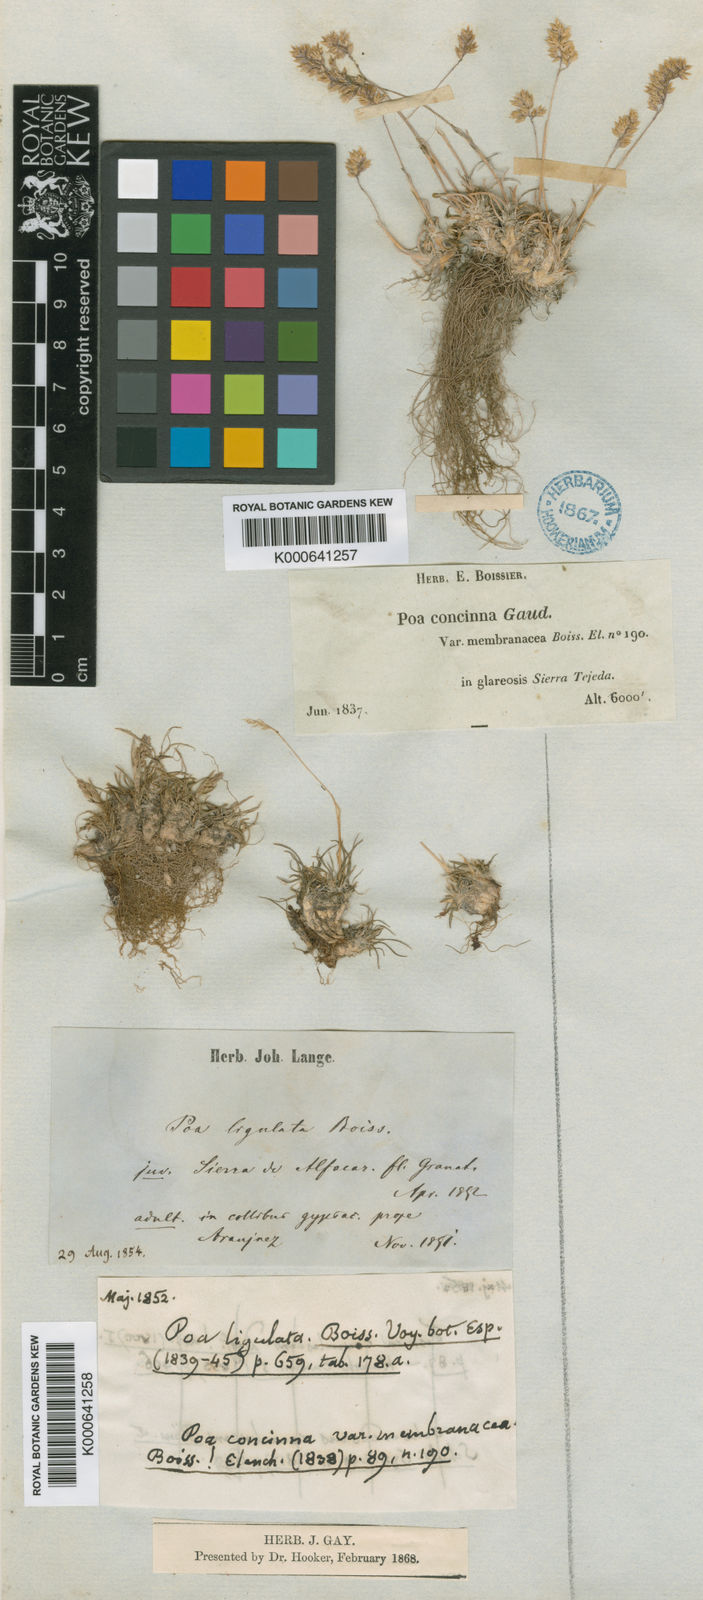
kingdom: Plantae
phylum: Tracheophyta
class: Liliopsida
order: Poales
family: Poaceae
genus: Poa
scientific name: Poa ligulata
